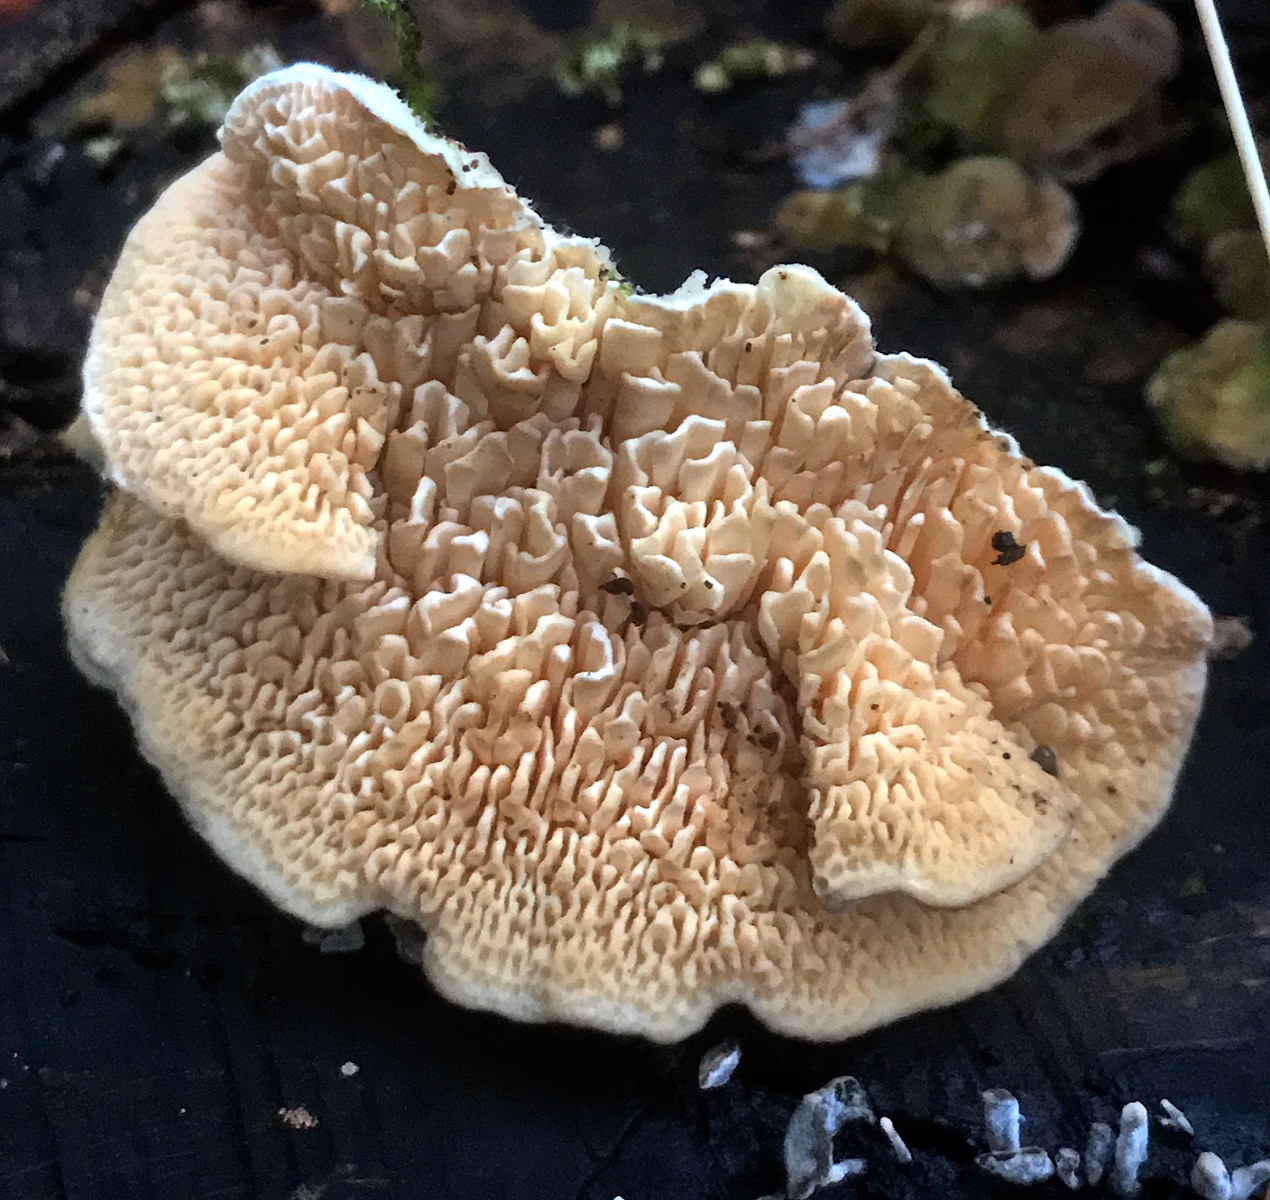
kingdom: Fungi
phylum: Basidiomycota
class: Agaricomycetes
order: Polyporales
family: Polyporaceae
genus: Lenzites
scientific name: Lenzites betulinus
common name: birke-læderporesvamp
